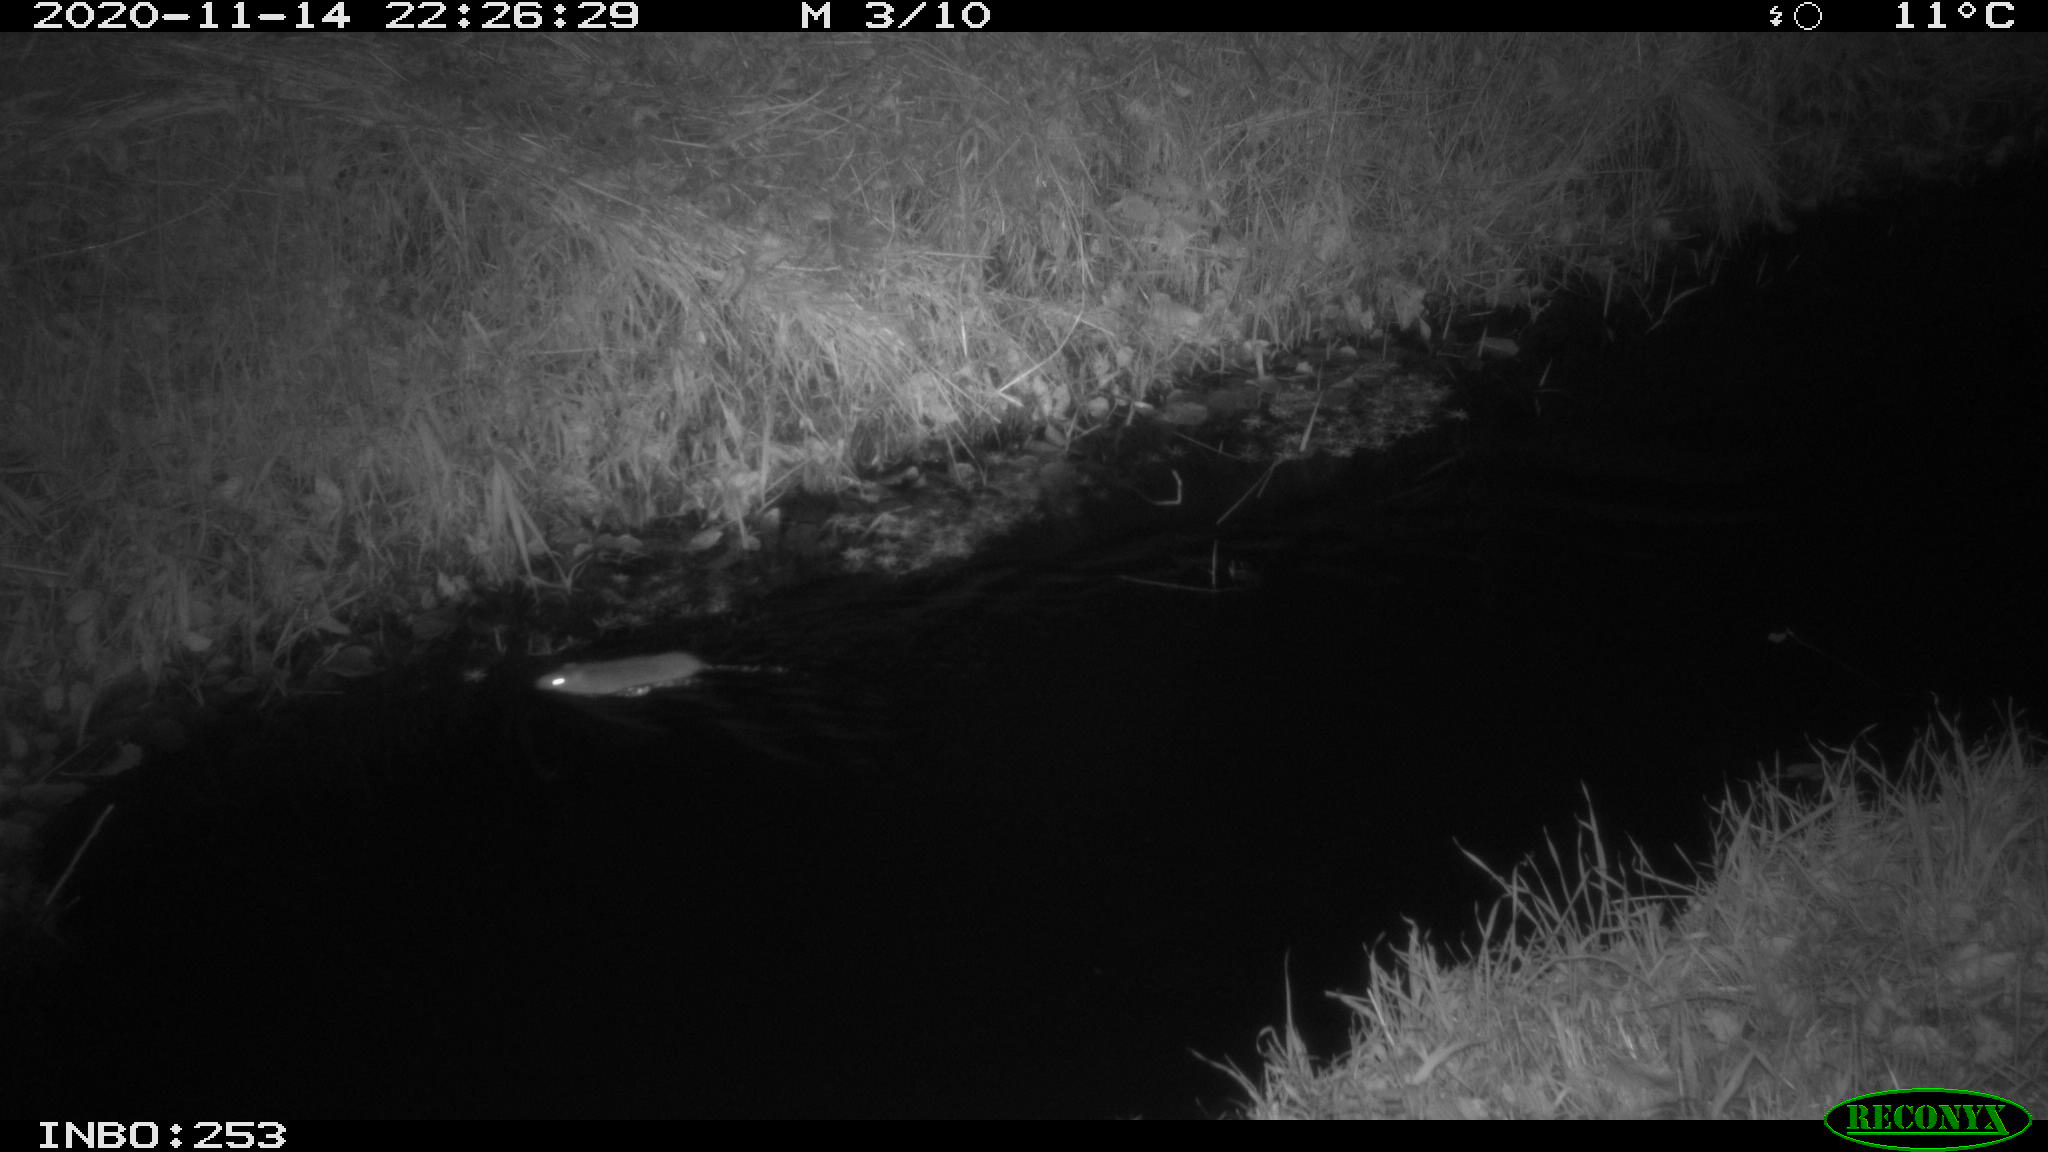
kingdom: Animalia
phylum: Chordata
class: Mammalia
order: Rodentia
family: Muridae
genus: Rattus
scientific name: Rattus norvegicus
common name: Brown rat
